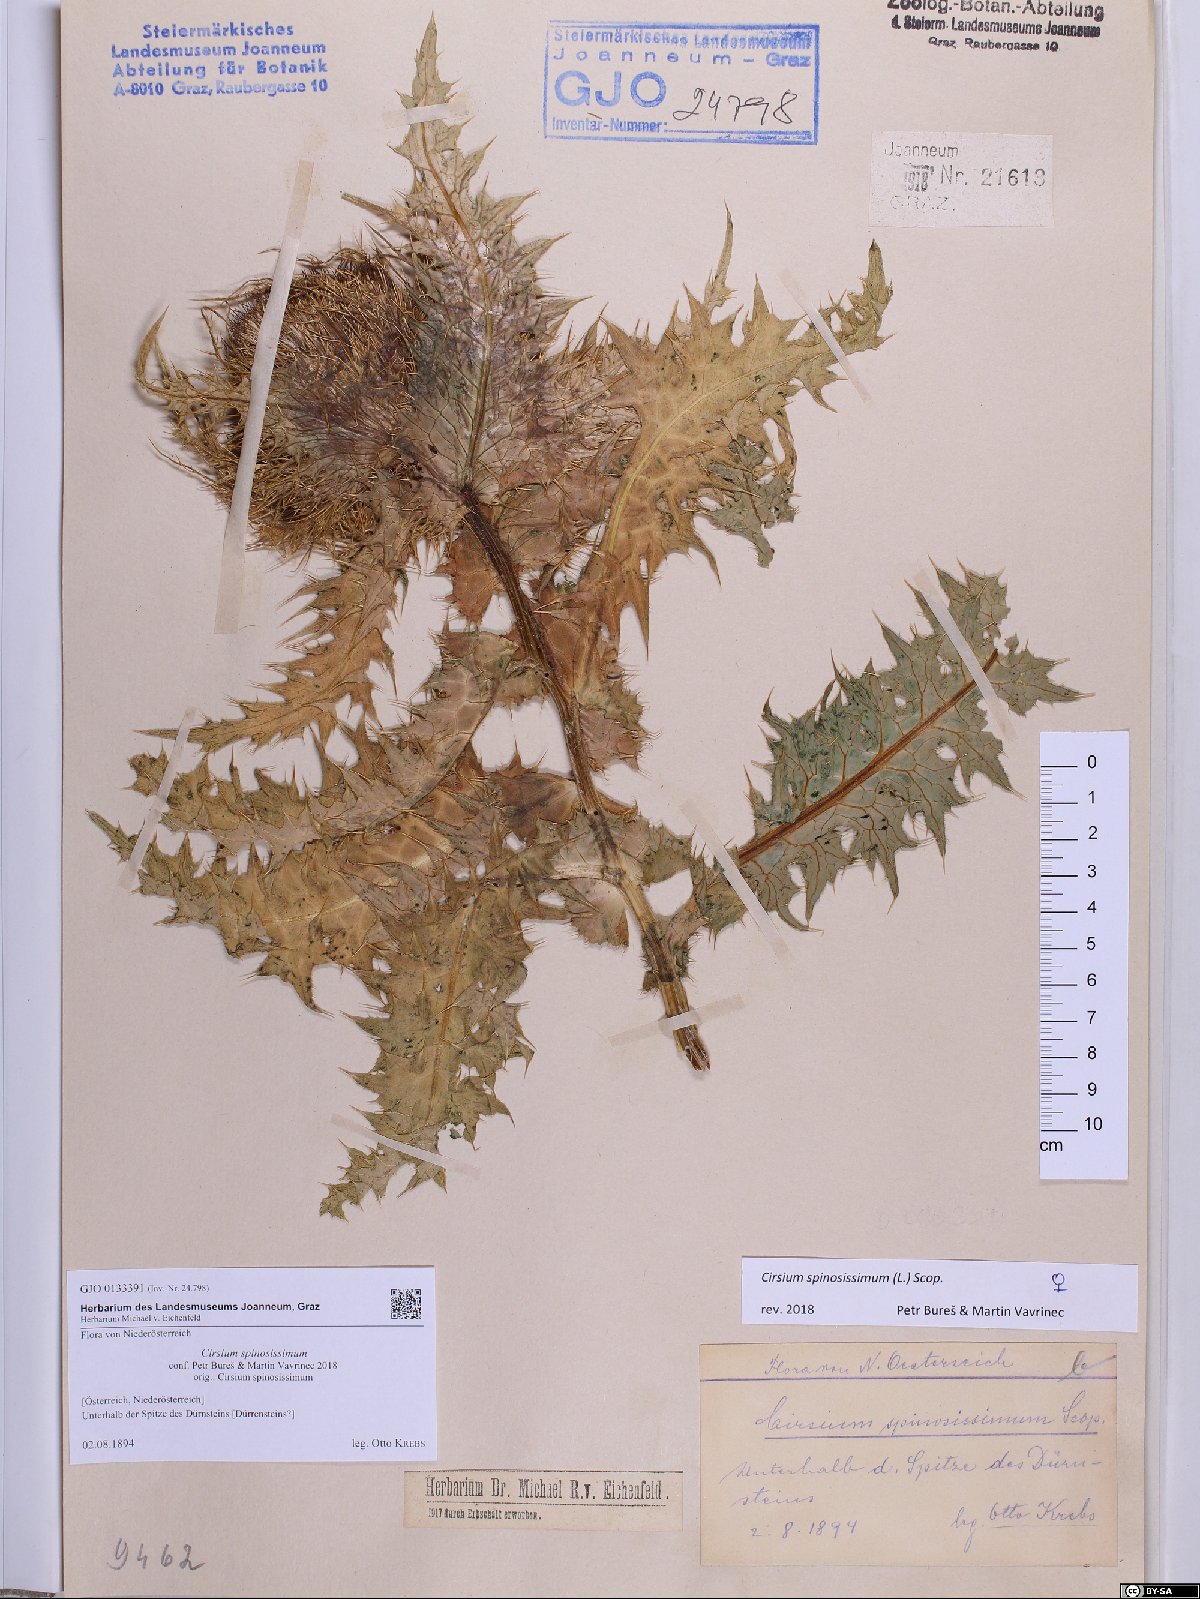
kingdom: Plantae
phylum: Tracheophyta
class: Magnoliopsida
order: Asterales
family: Asteraceae
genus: Cirsium
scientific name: Cirsium spinosissimum
